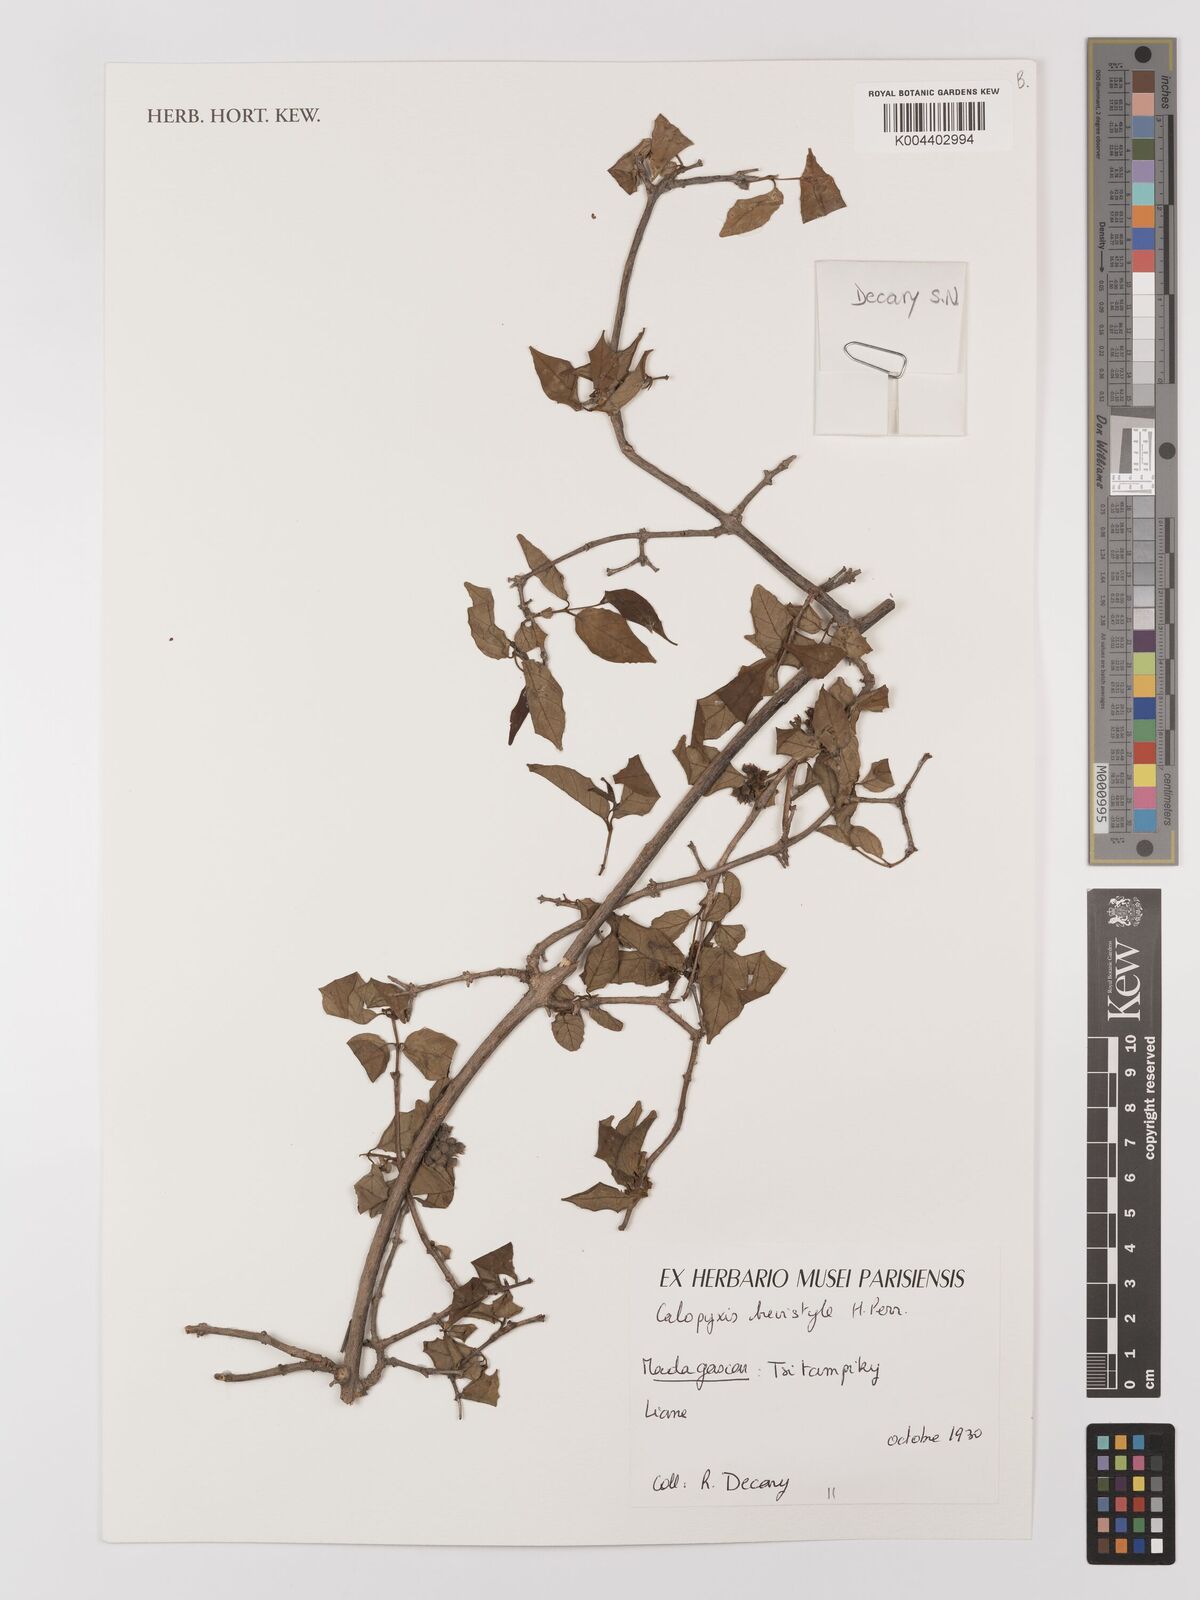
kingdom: Plantae
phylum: Tracheophyta
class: Magnoliopsida
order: Myrtales
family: Combretaceae
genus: Combretum
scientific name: Combretum brevistylum
